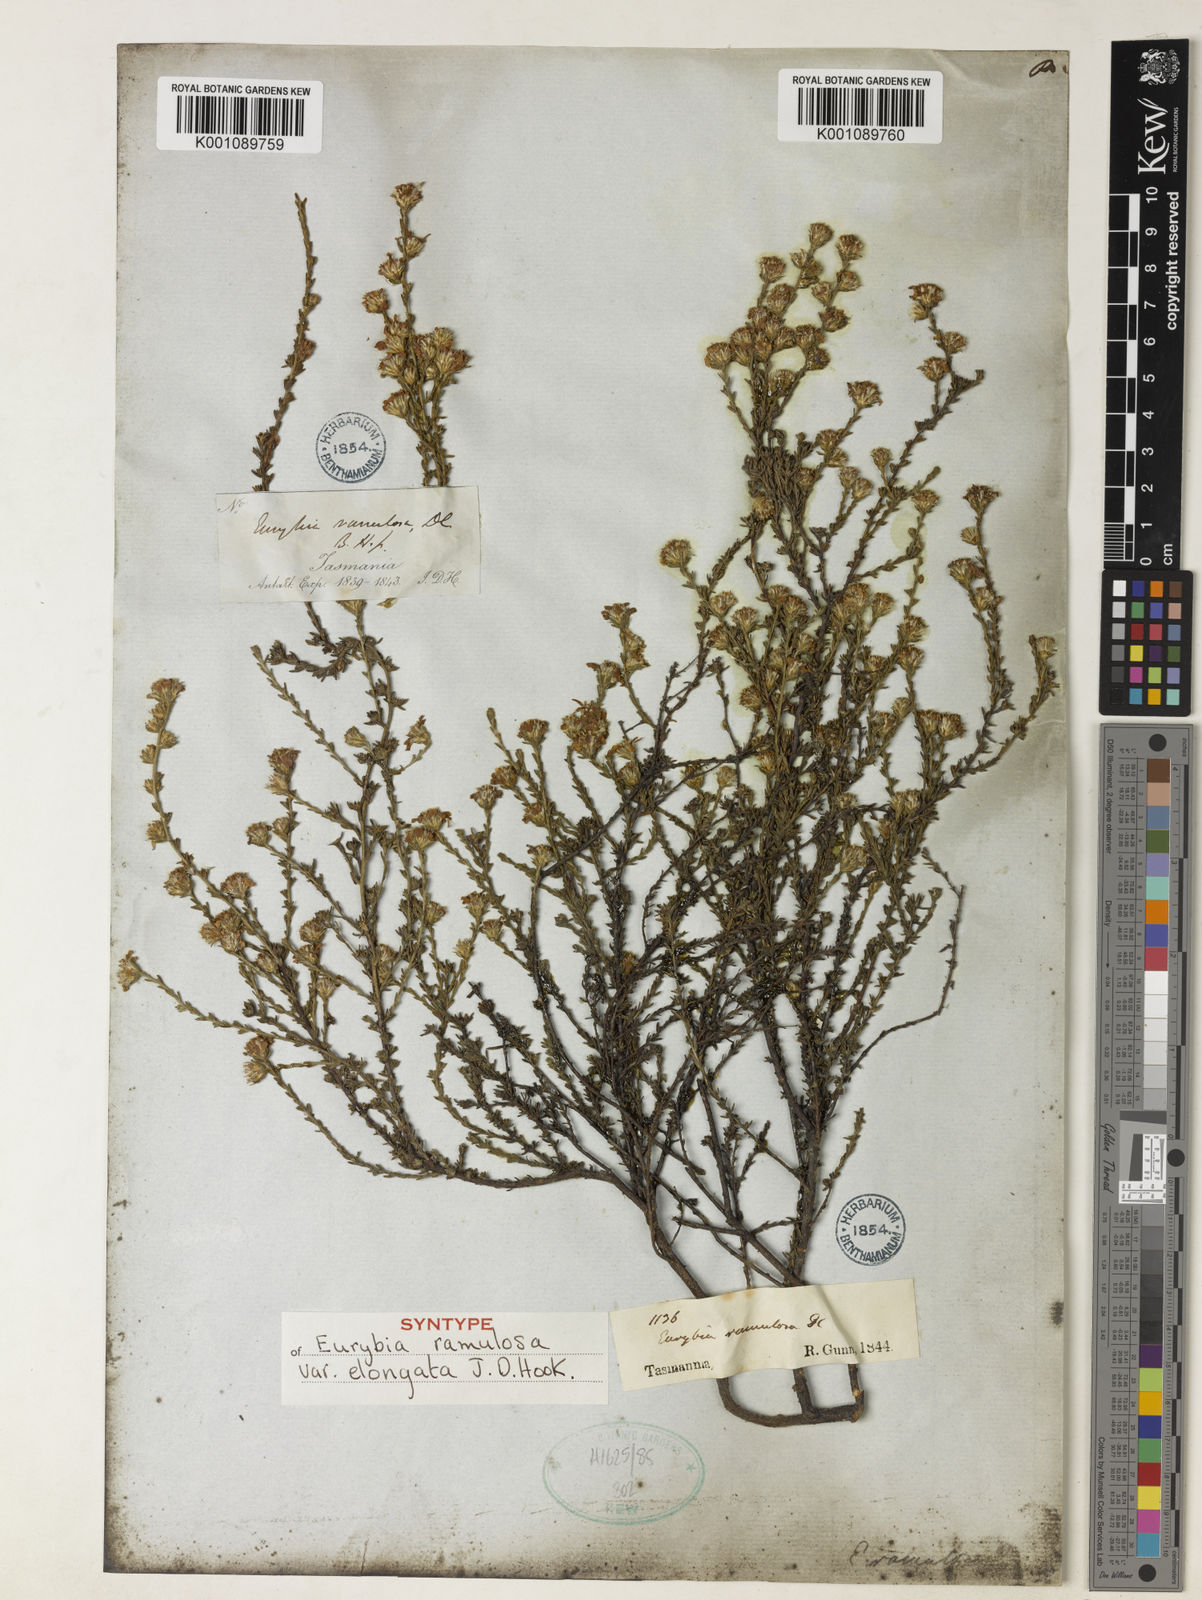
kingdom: Plantae
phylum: Tracheophyta
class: Magnoliopsida
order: Asterales
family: Asteraceae
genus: Olearia
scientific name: Olearia ramulosa
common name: Twiggy daisybush
